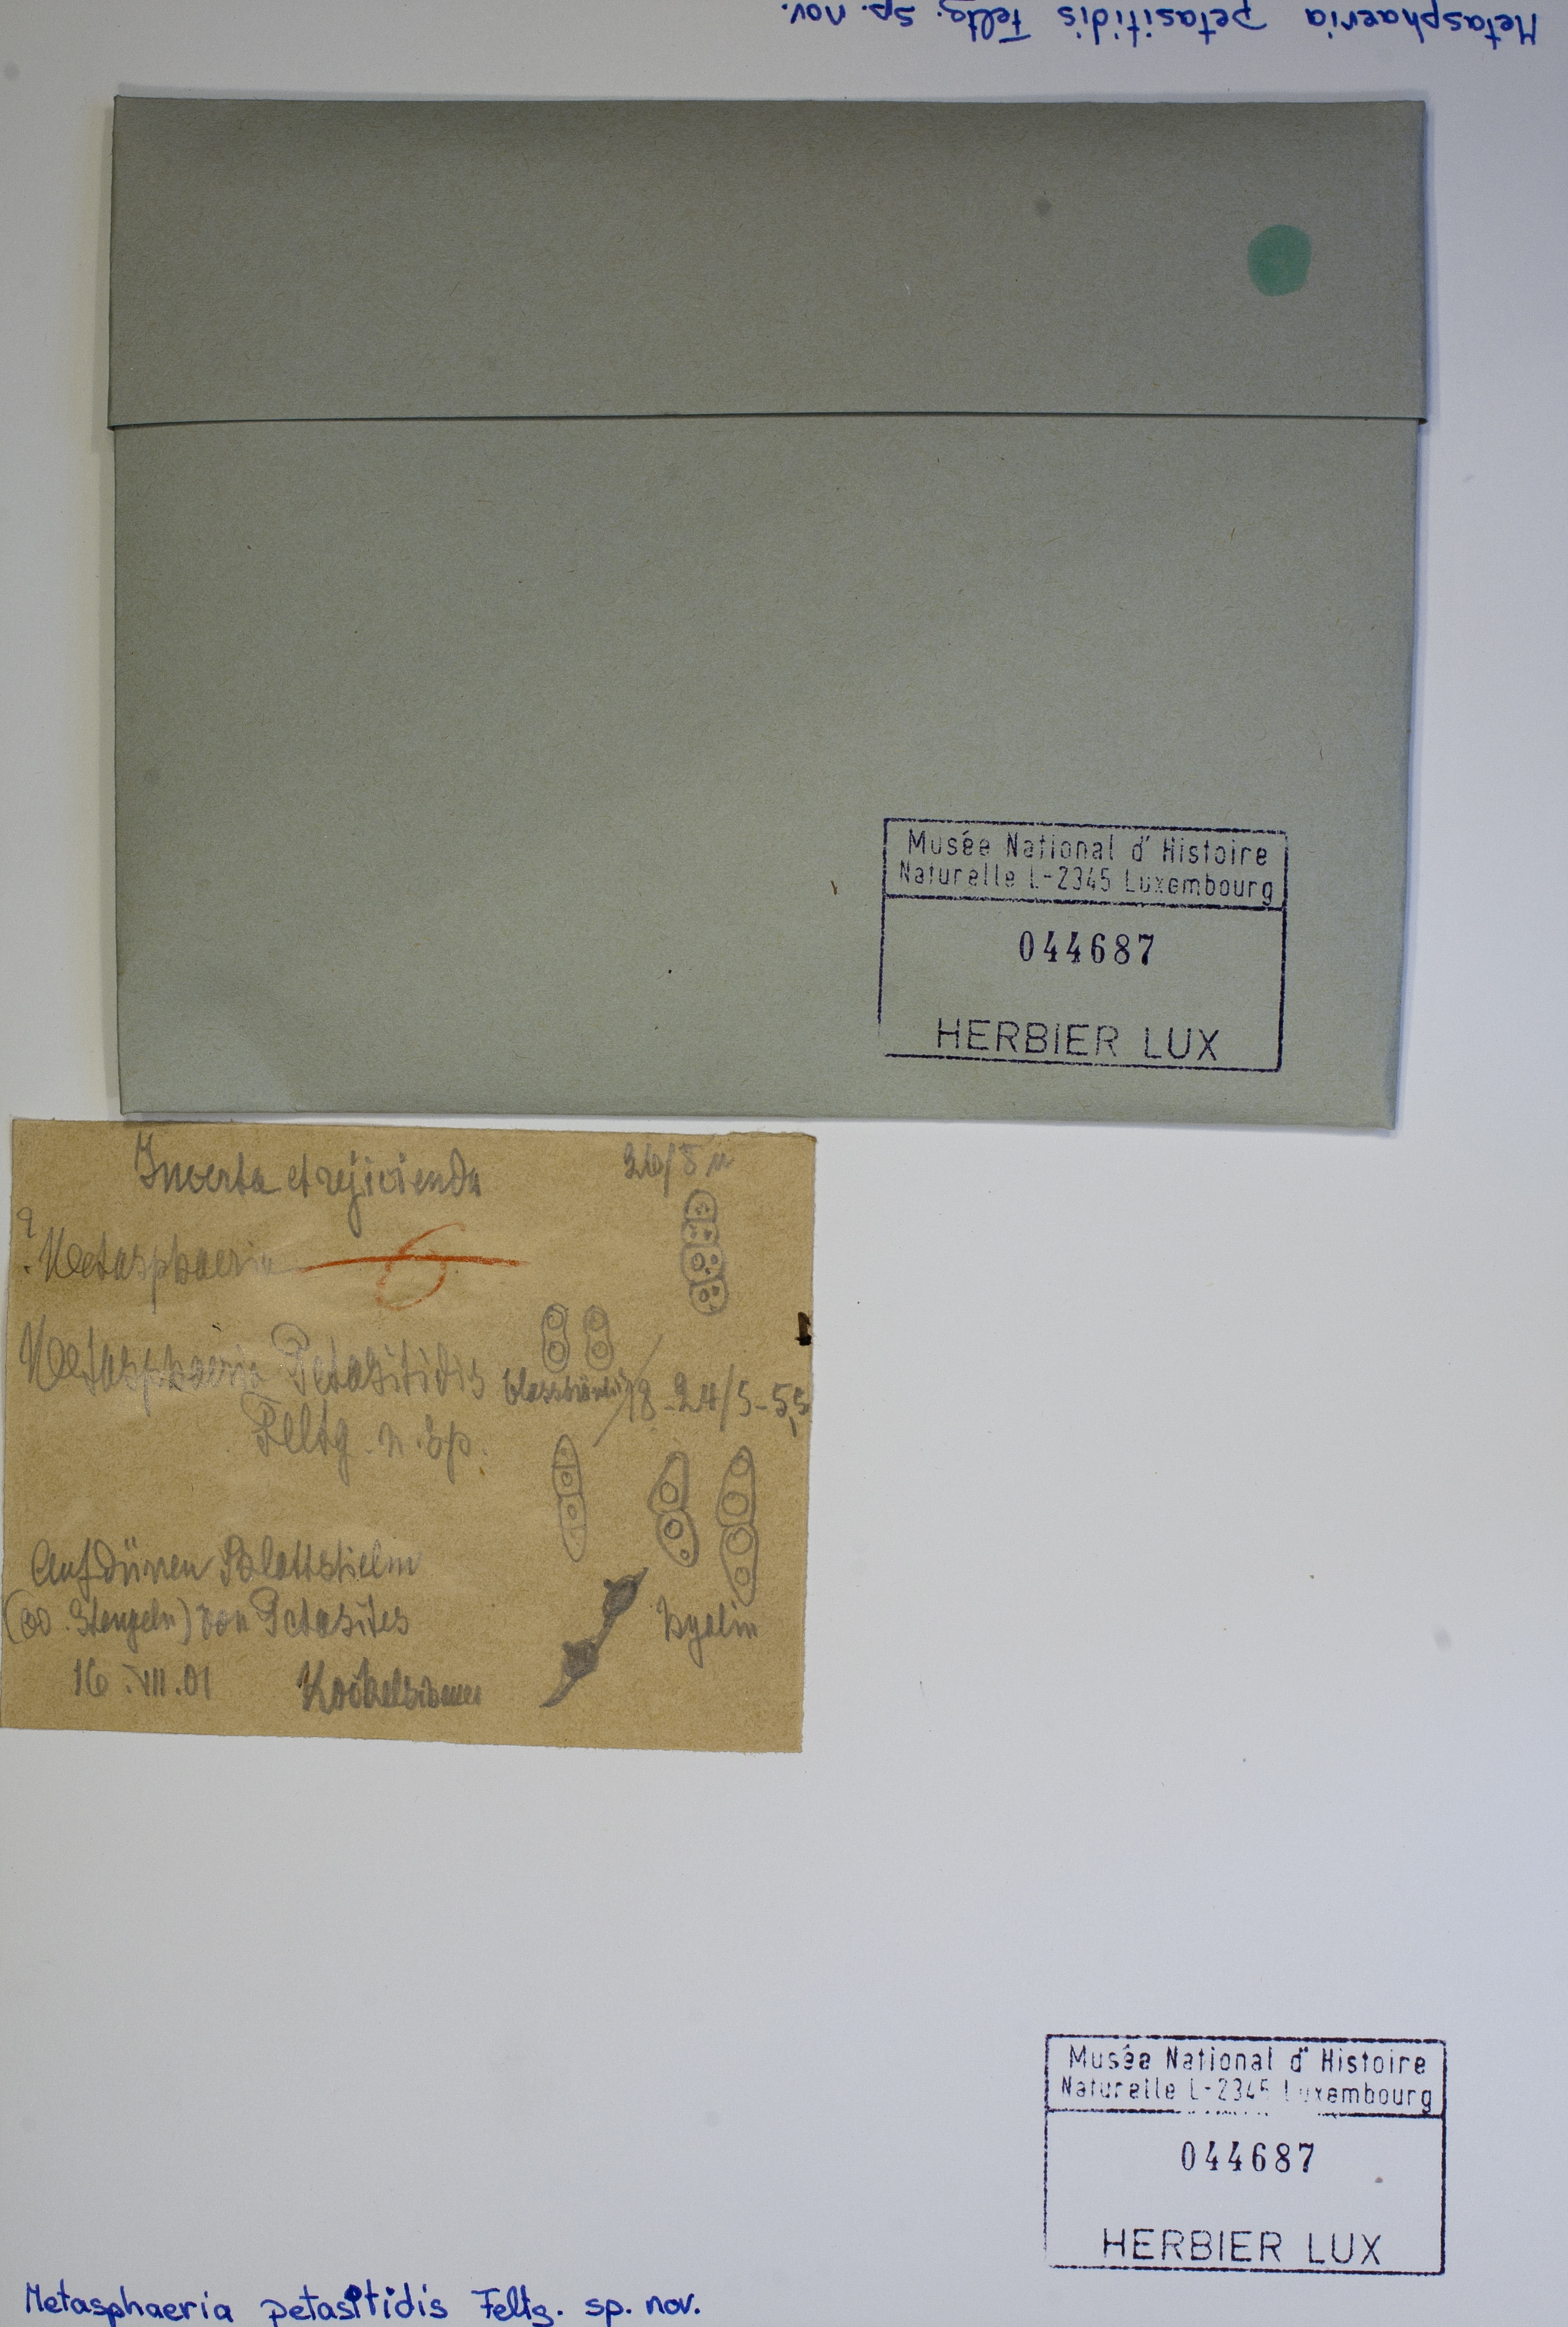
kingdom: Fungi
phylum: Ascomycota
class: Dothideomycetes
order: Dothideales
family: Saccotheciaceae
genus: Metasphaeria
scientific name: Metasphaeria petasitis
